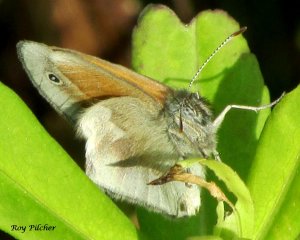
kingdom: Animalia
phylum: Arthropoda
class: Insecta
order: Lepidoptera
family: Nymphalidae
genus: Coenonympha
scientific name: Coenonympha tullia
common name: Large Heath
